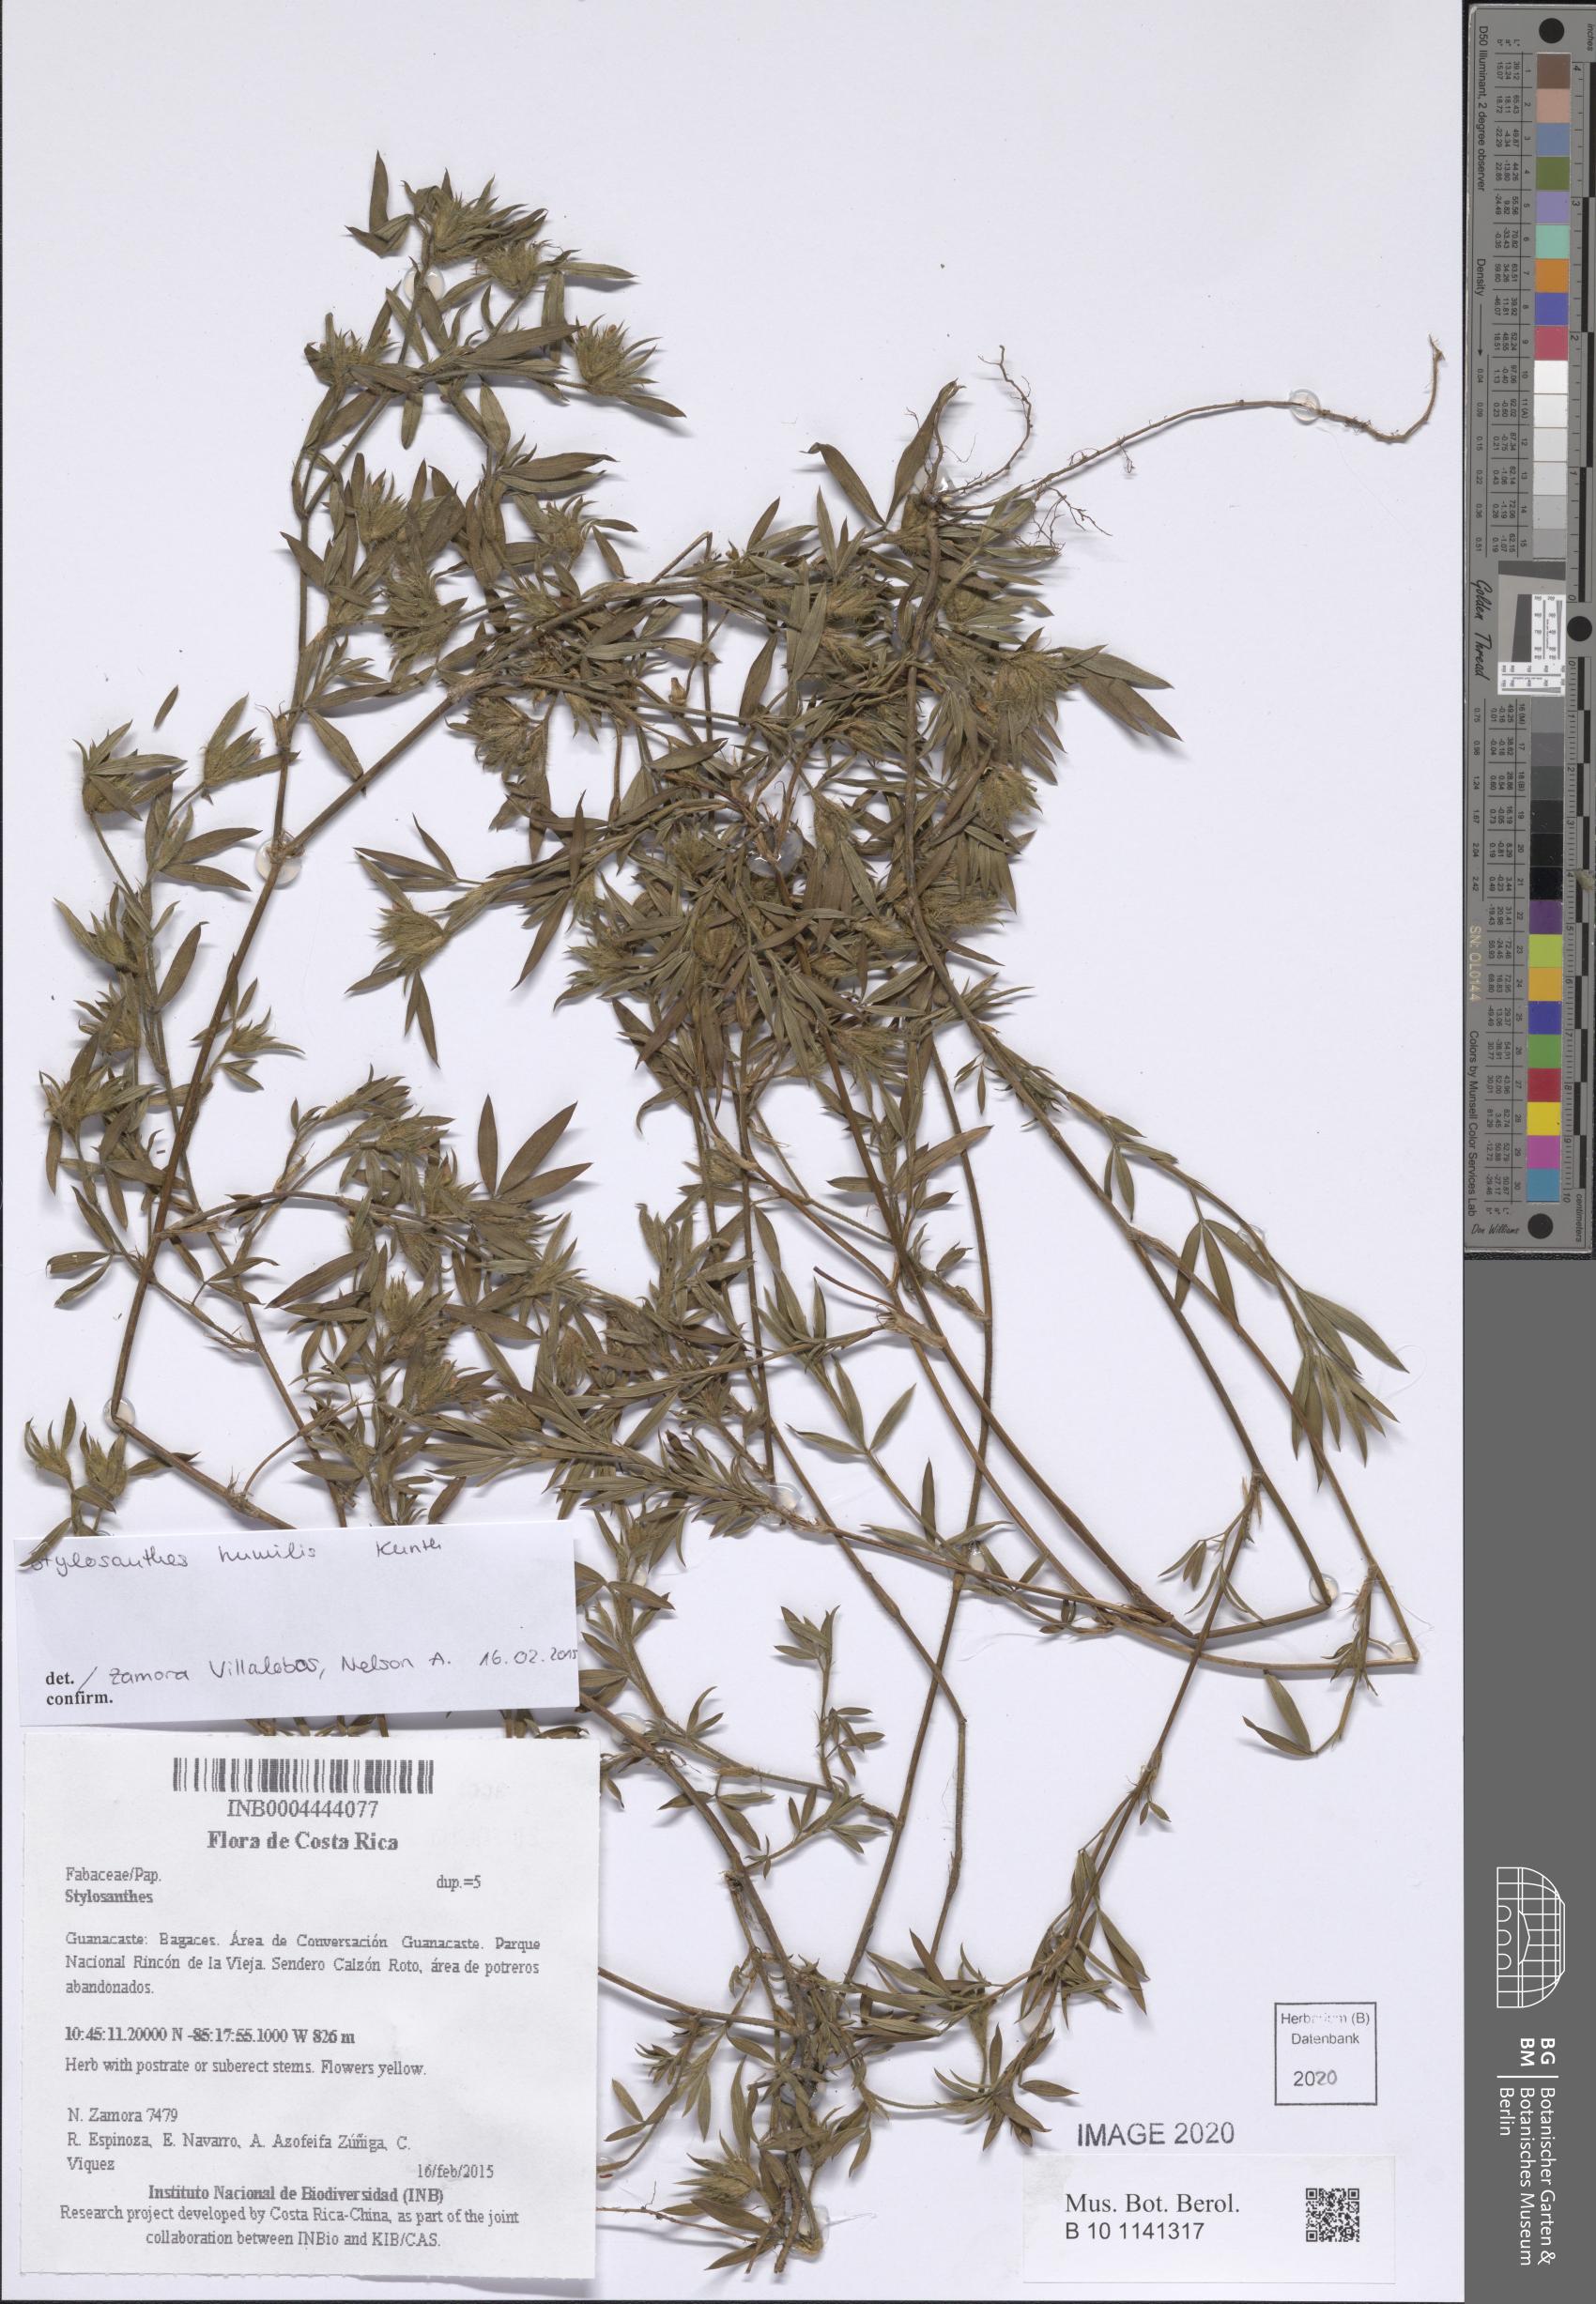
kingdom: Plantae
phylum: Tracheophyta
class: Magnoliopsida
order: Fabales
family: Fabaceae
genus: Stylosanthes
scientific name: Stylosanthes humilis
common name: Townsville stylo
